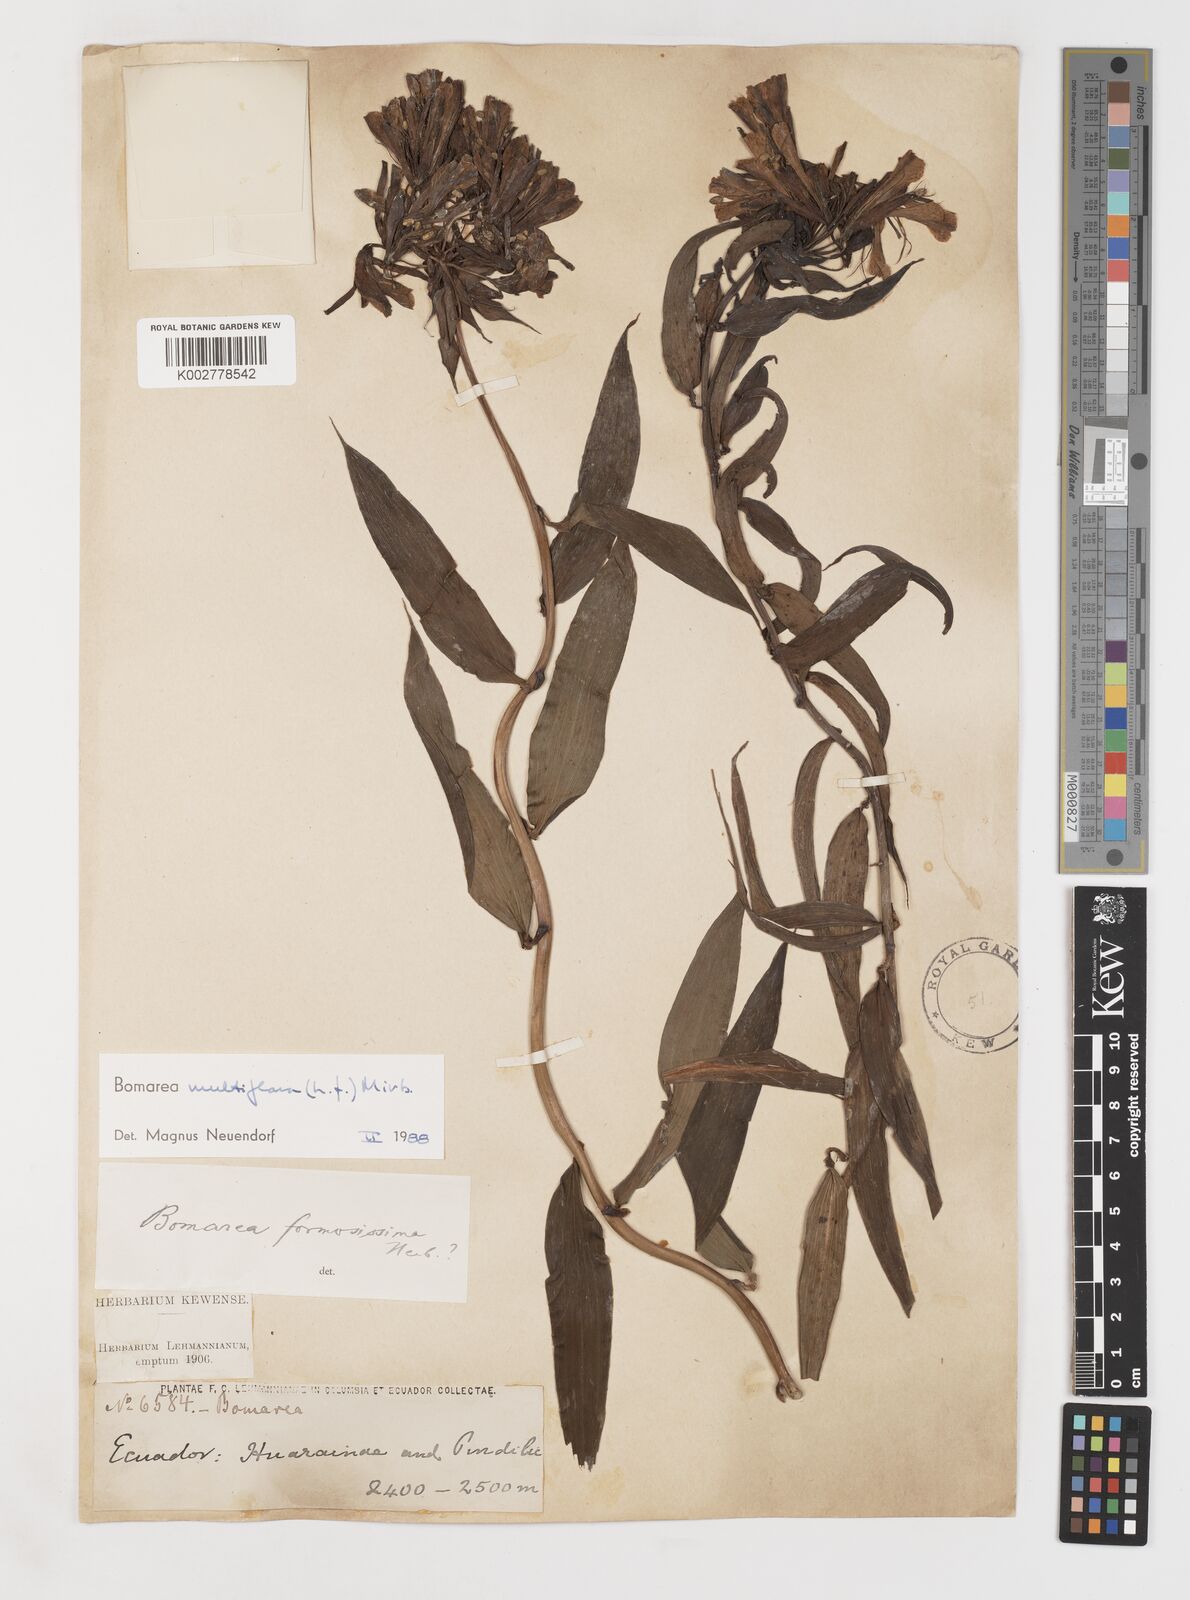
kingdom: Plantae
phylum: Tracheophyta
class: Liliopsida
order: Liliales
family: Alstroemeriaceae
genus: Bomarea
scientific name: Bomarea multiflora
